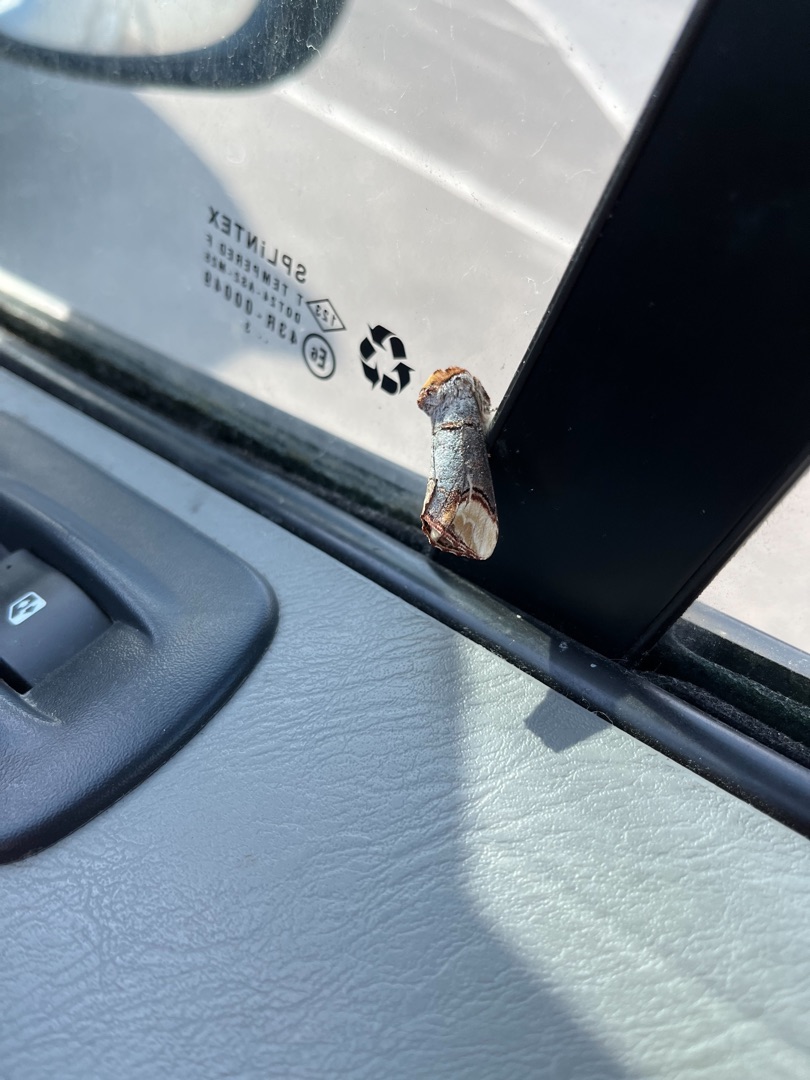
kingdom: Animalia
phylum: Arthropoda
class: Insecta
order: Lepidoptera
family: Notodontidae
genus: Phalera
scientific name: Phalera bucephala
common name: Måneplet
